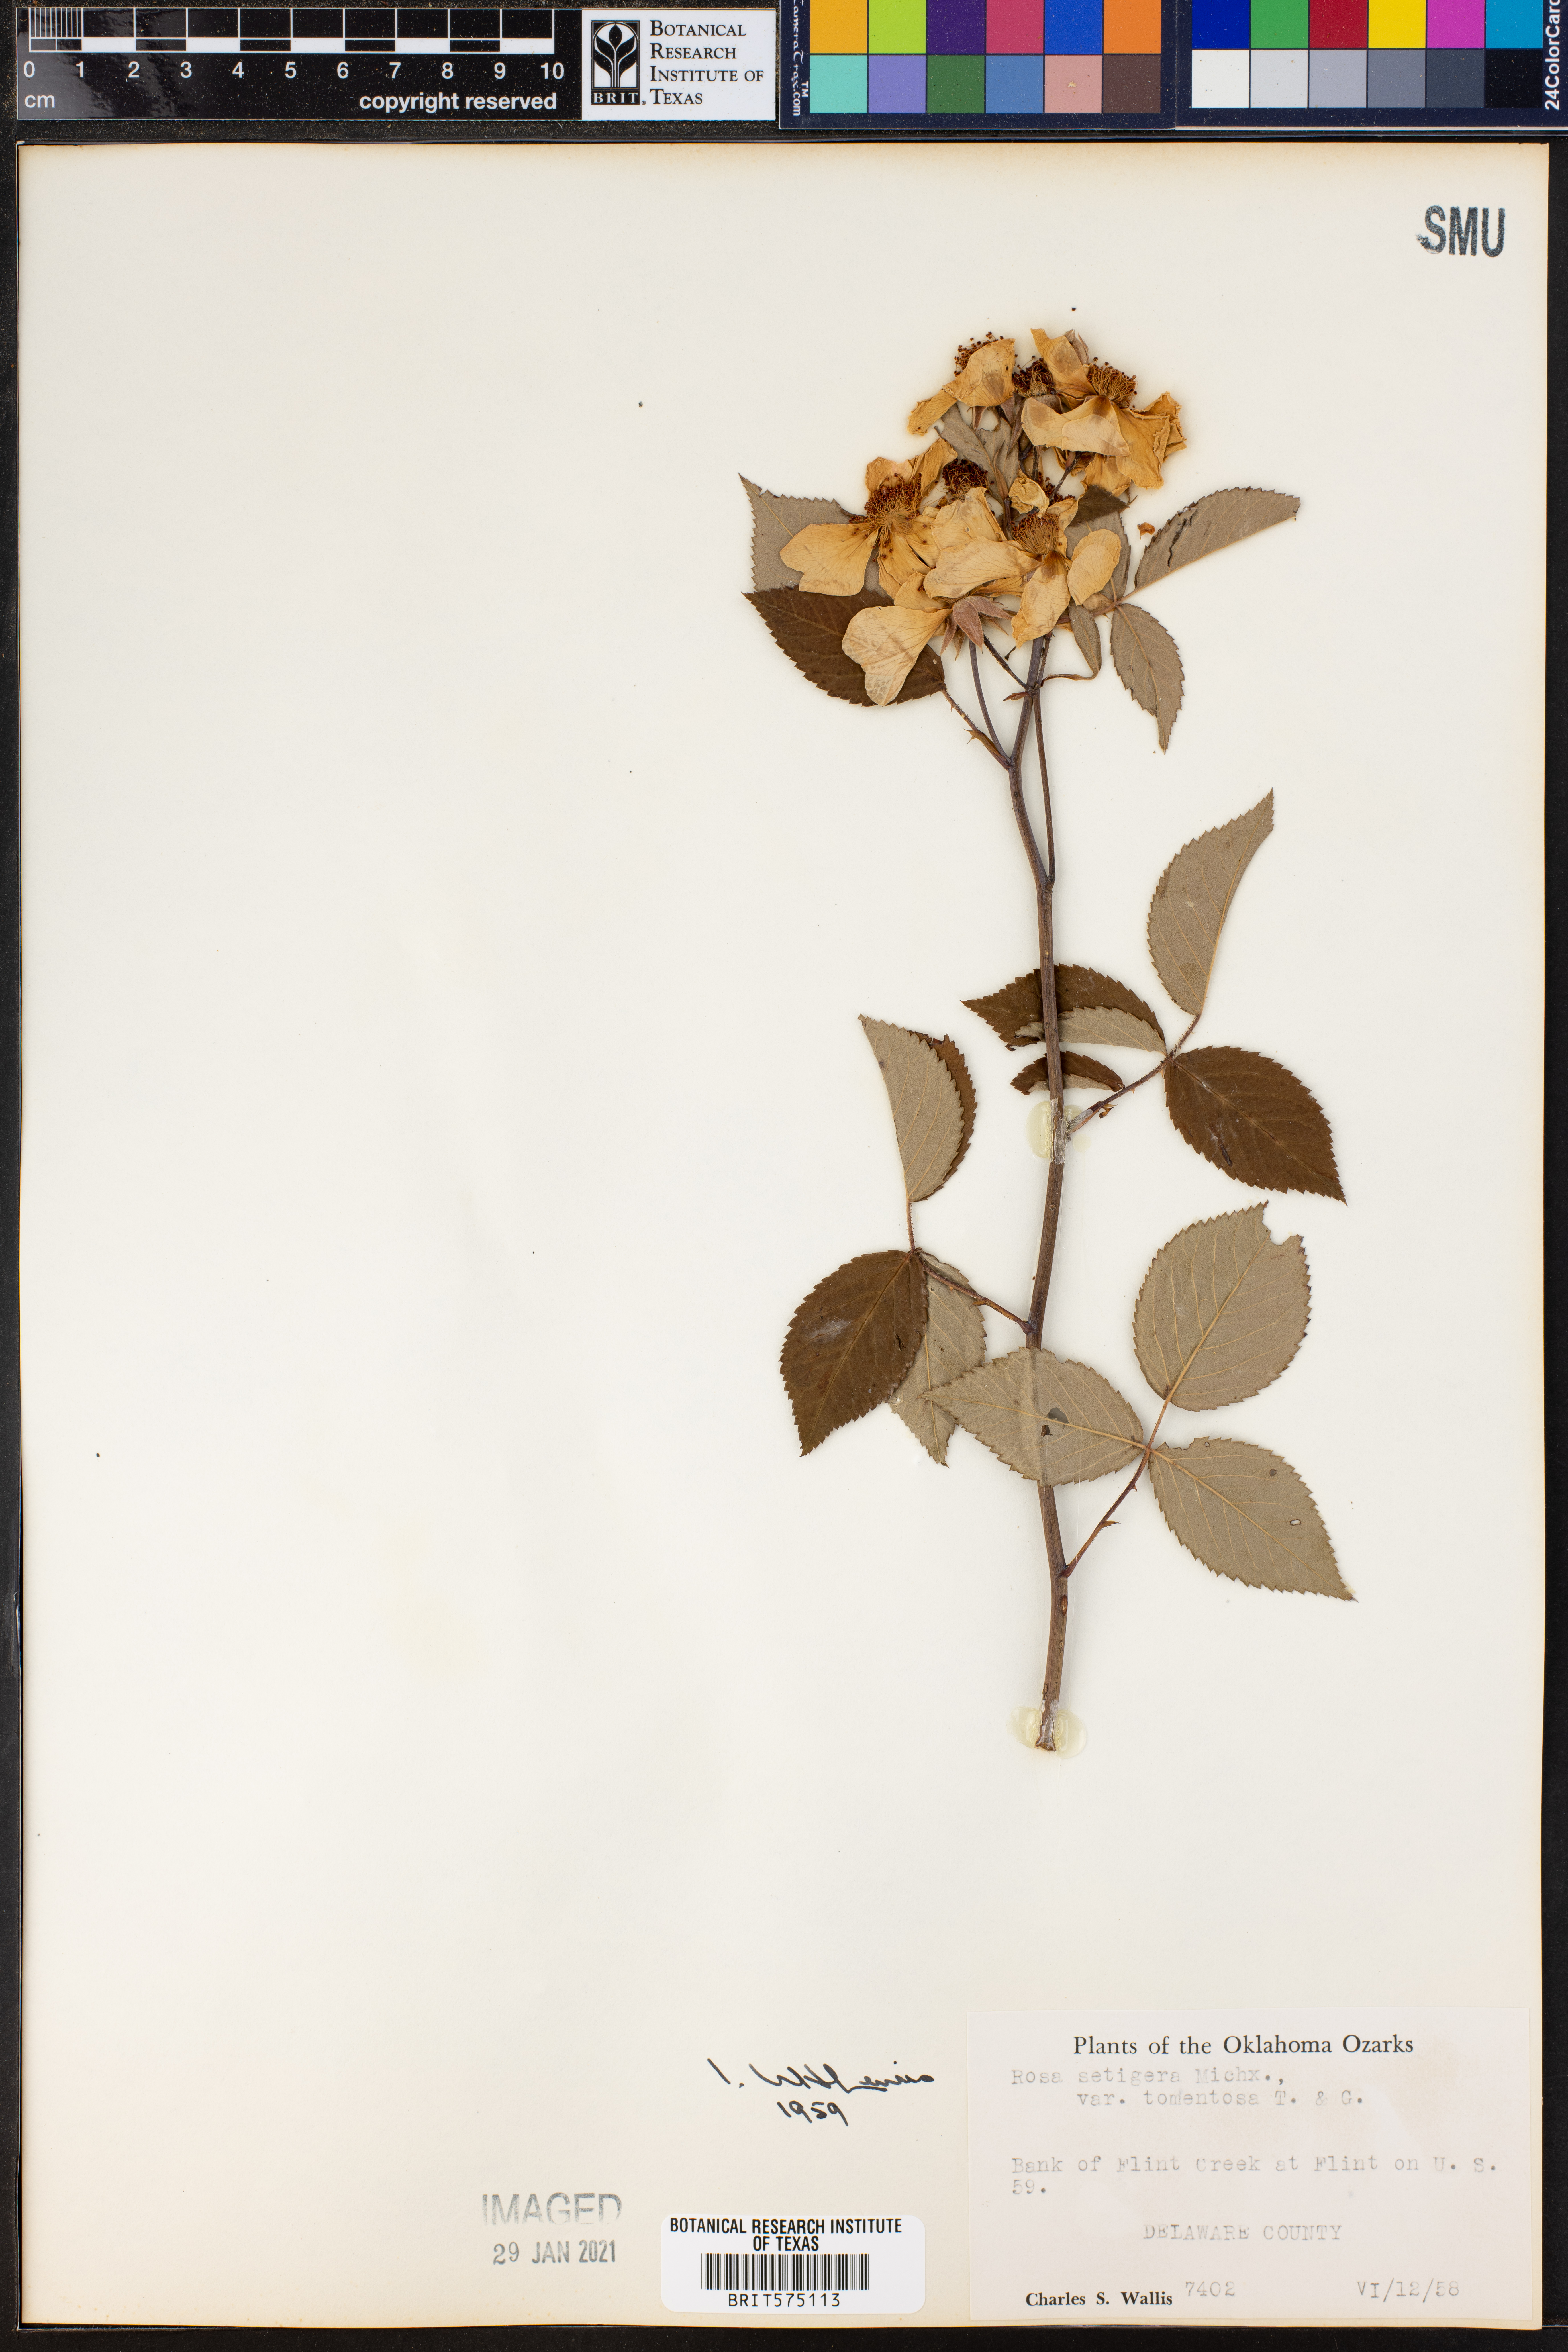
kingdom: Plantae
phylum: Tracheophyta
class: Magnoliopsida
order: Rosales
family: Rosaceae
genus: Rosa
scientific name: Rosa setigera
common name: Prairie rose
